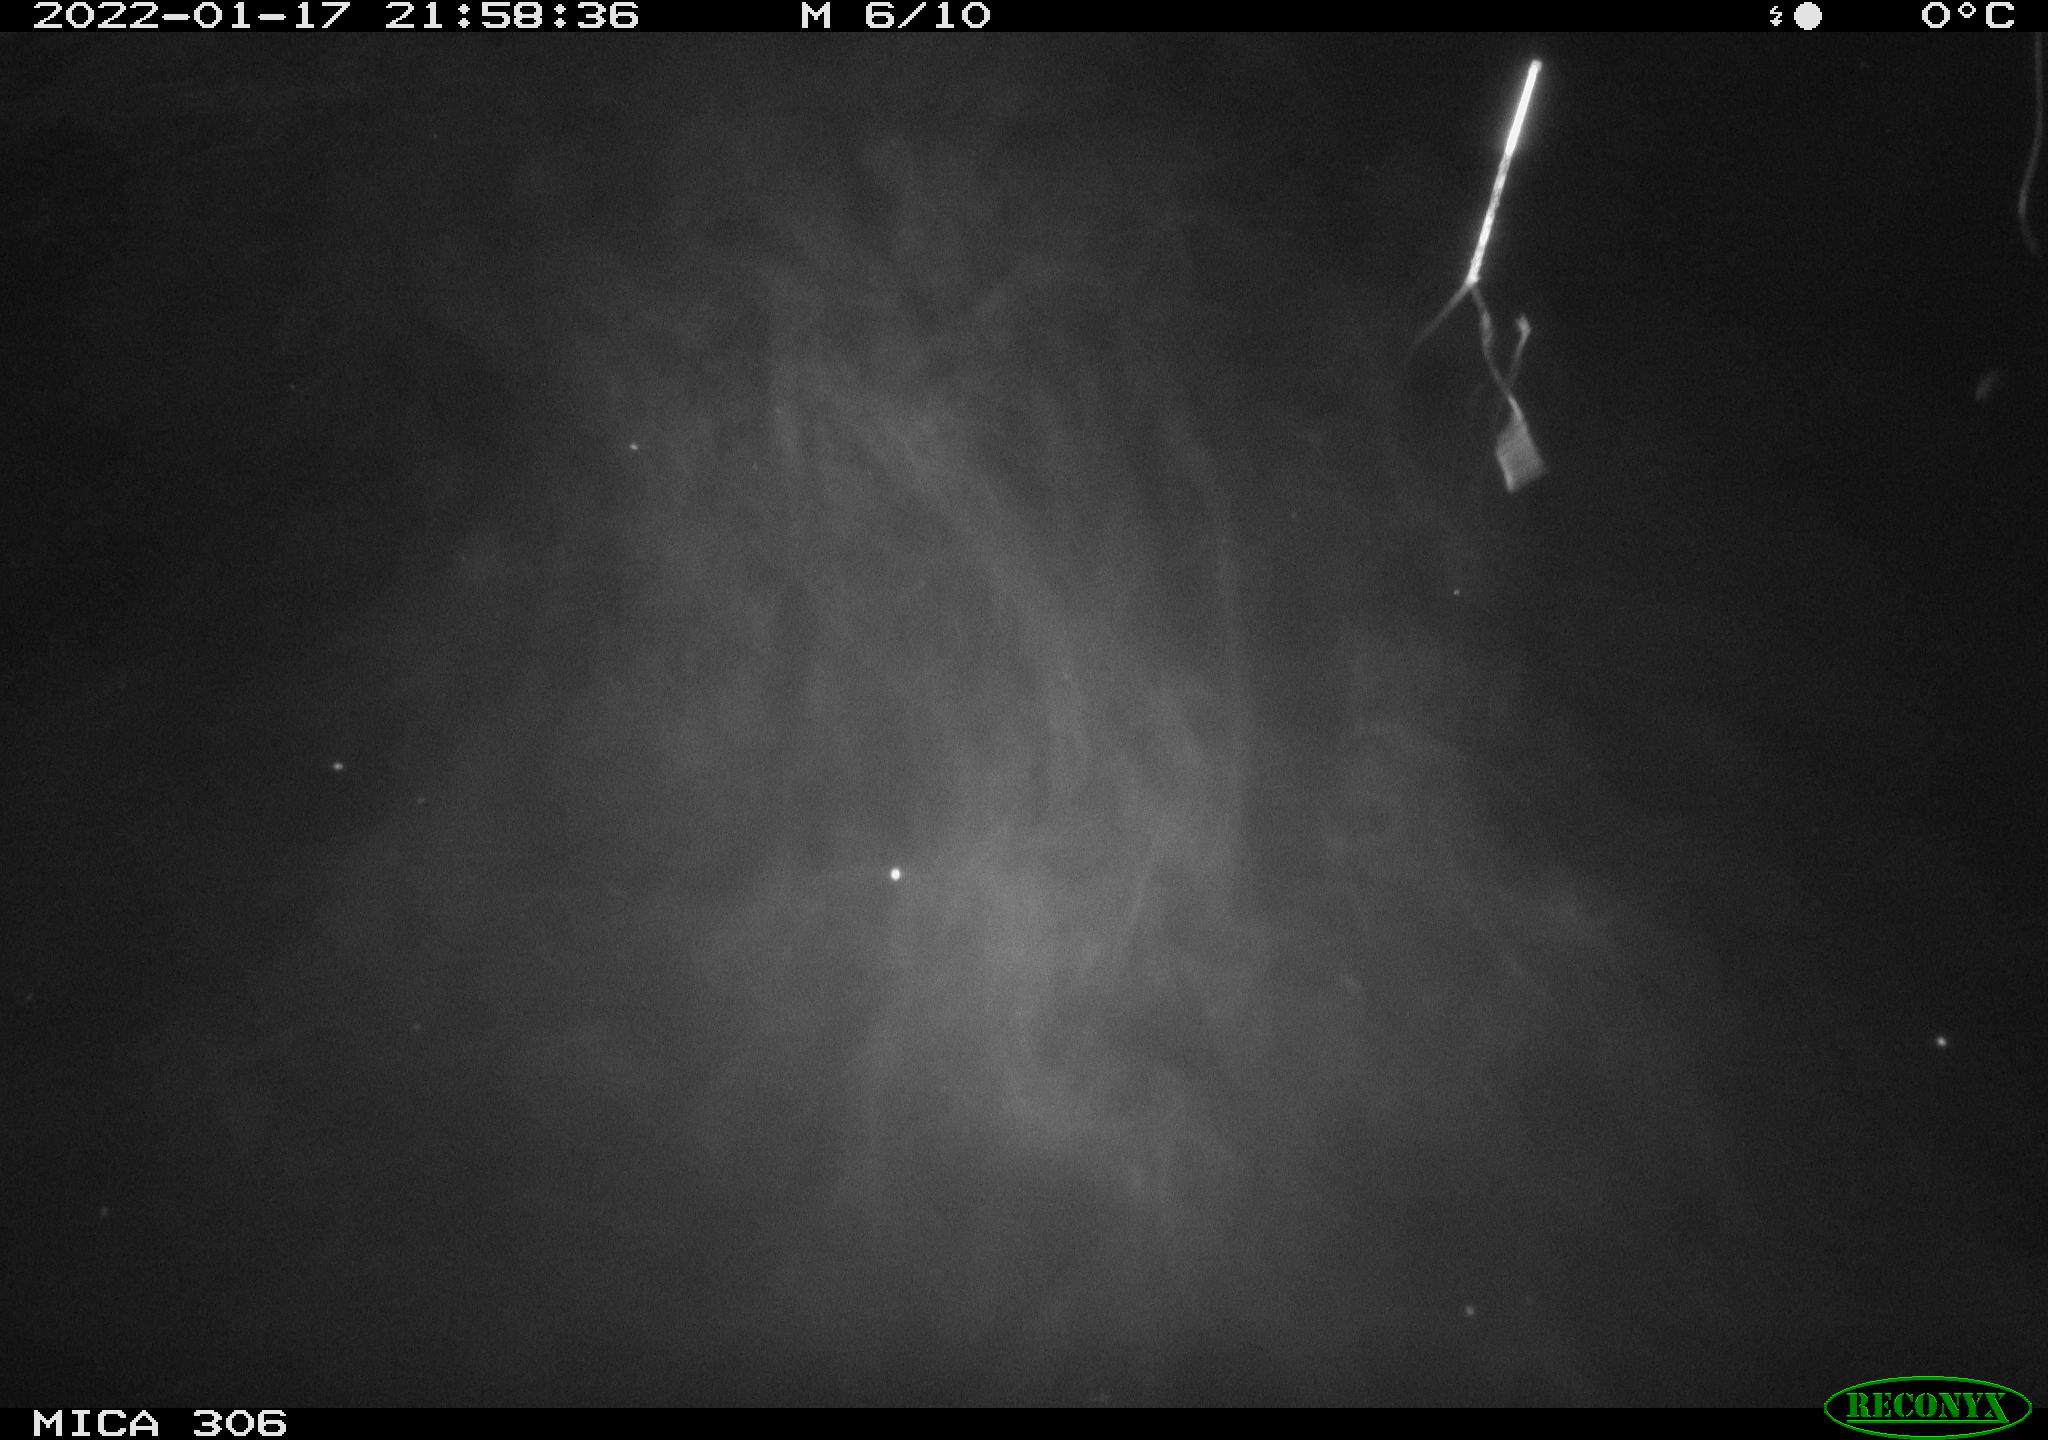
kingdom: Animalia
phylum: Chordata
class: Mammalia
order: Rodentia
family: Cricetidae
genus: Ondatra
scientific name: Ondatra zibethicus
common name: Muskrat
